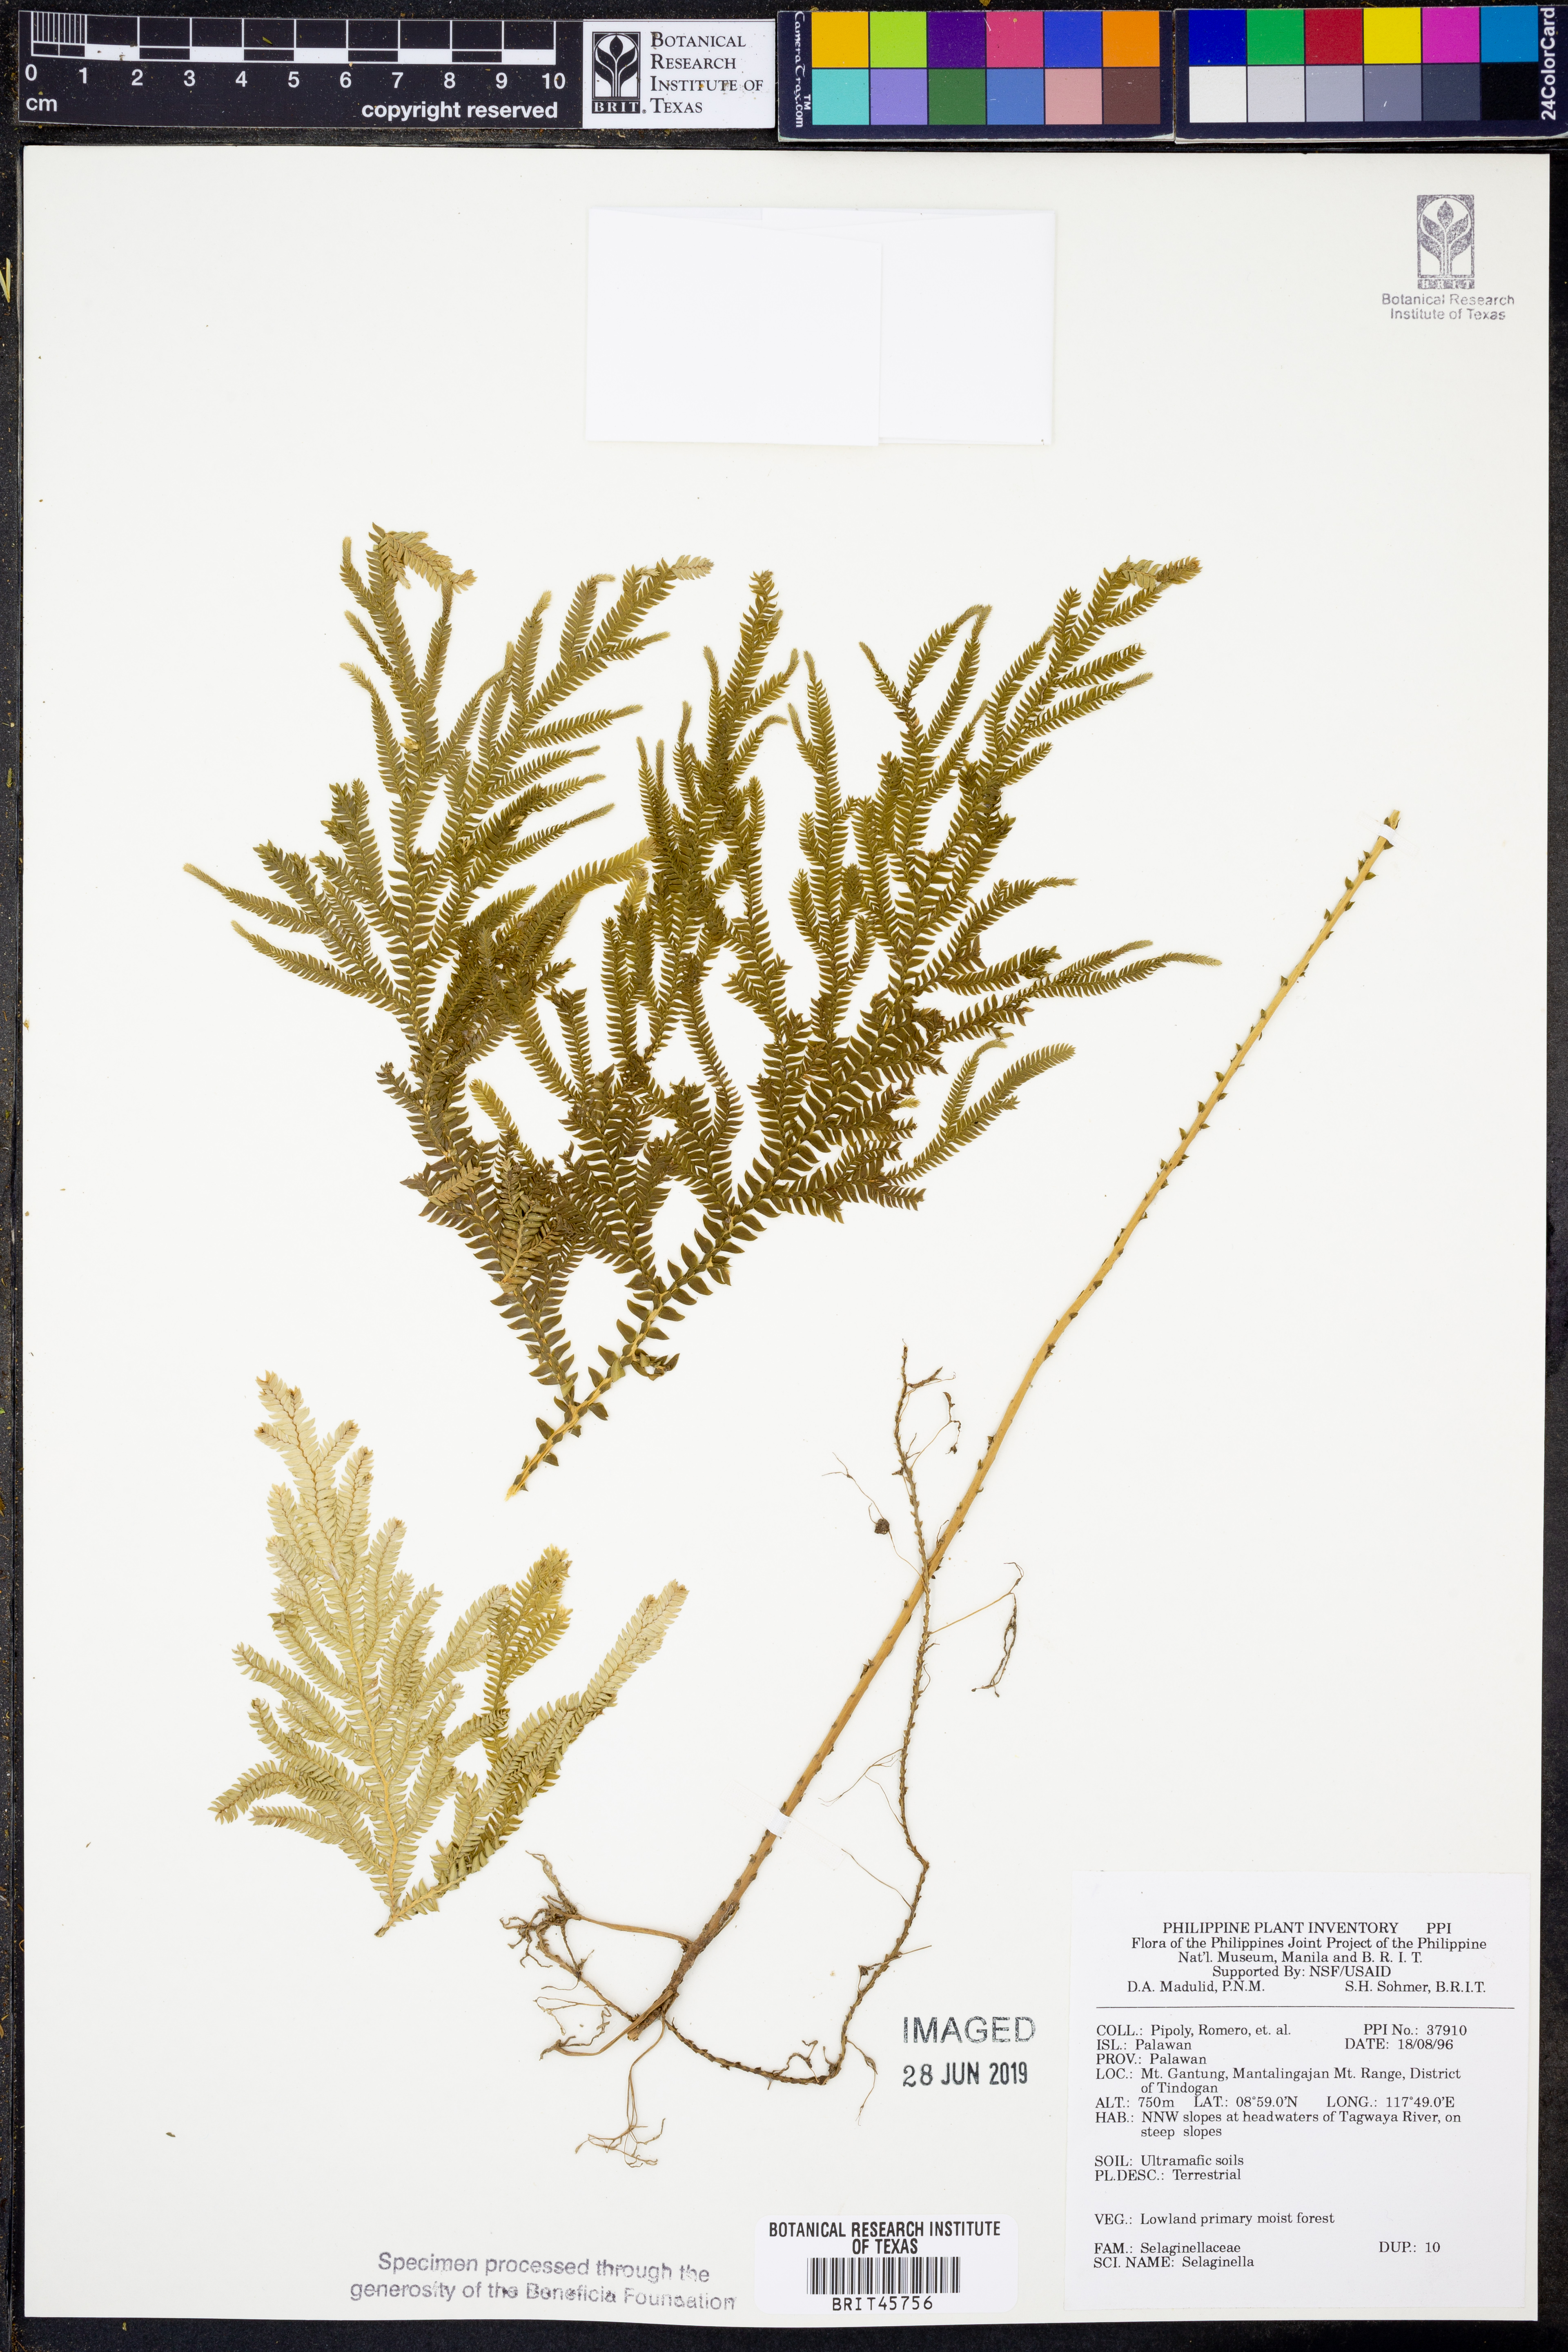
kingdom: Plantae
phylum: Tracheophyta
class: Lycopodiopsida
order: Selaginellales
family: Selaginellaceae
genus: Selaginella
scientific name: Selaginella
